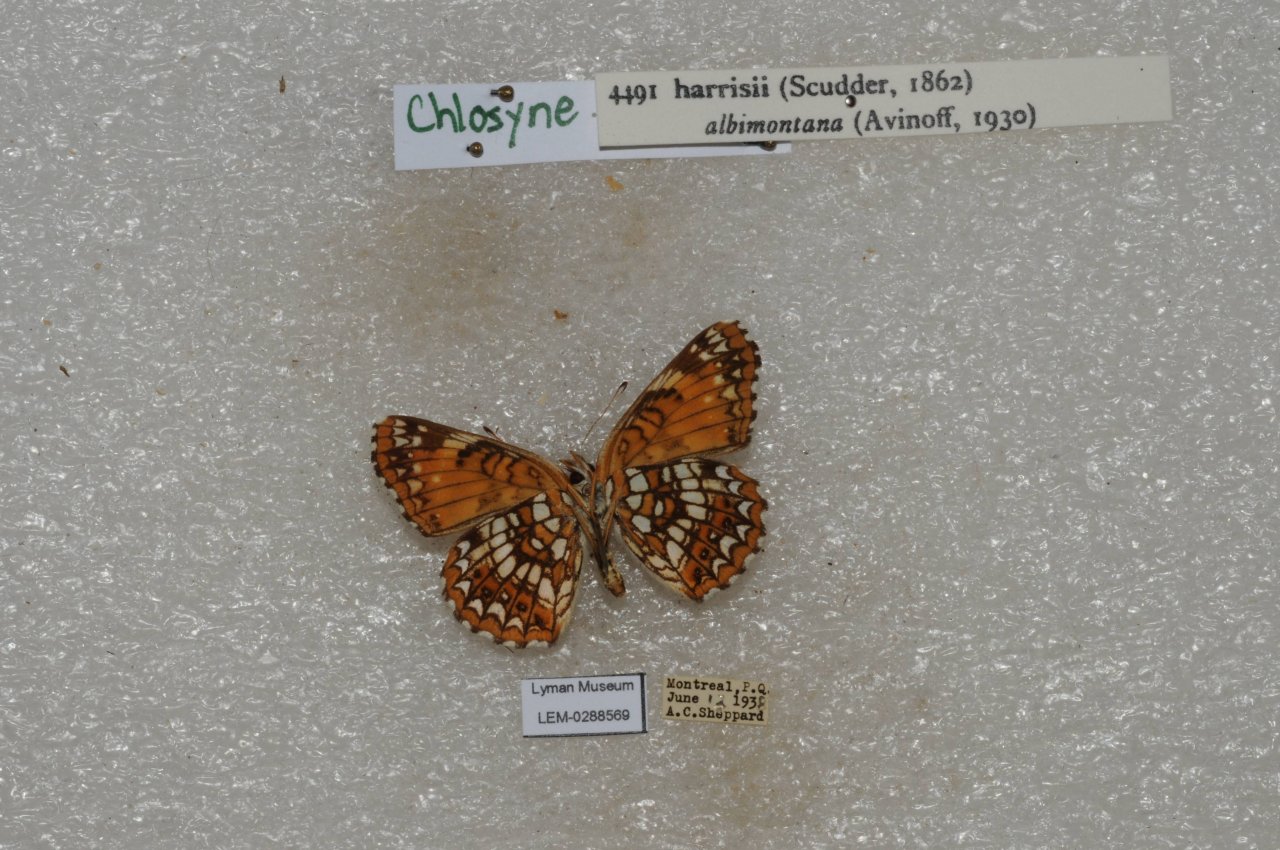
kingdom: Animalia
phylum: Arthropoda
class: Insecta
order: Lepidoptera
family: Nymphalidae
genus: Chlosyne
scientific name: Chlosyne harrisii
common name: Harris's Checkerspot
